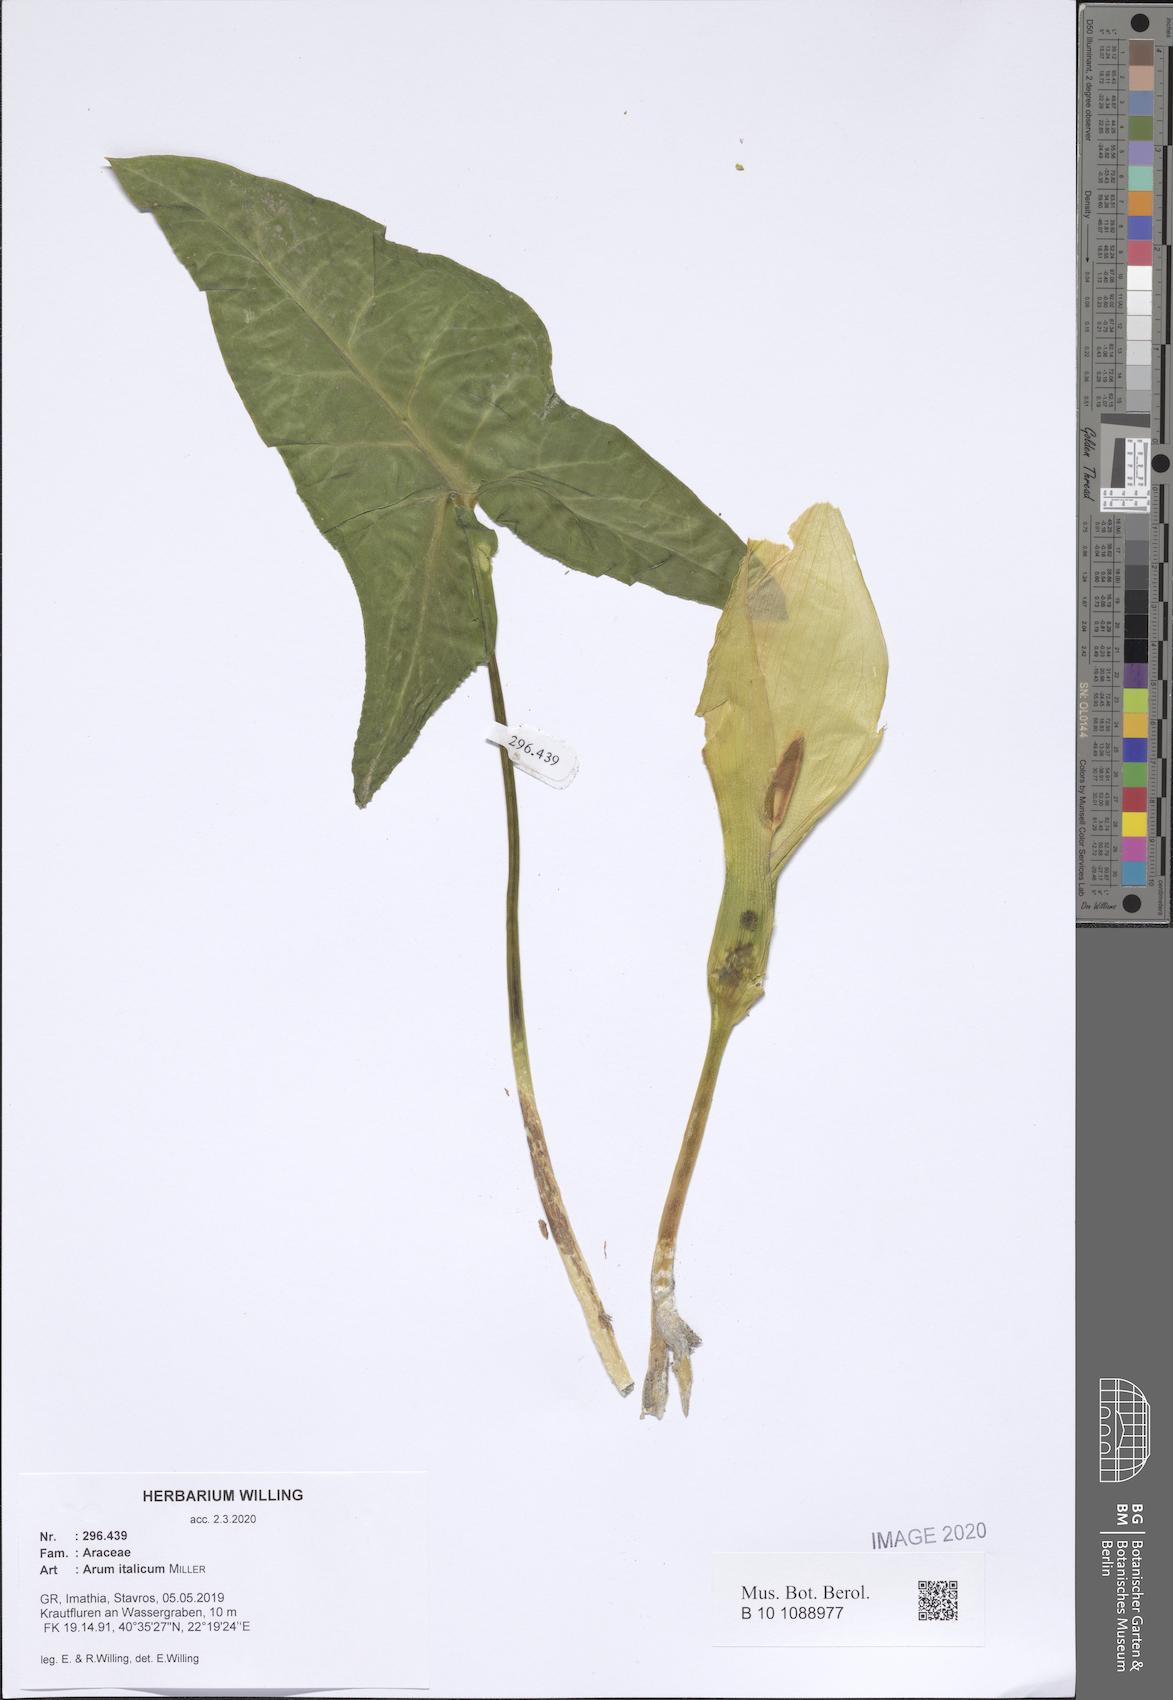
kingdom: Plantae
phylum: Tracheophyta
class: Liliopsida
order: Alismatales
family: Araceae
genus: Arum
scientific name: Arum italicum
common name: Italian lords-and-ladies
